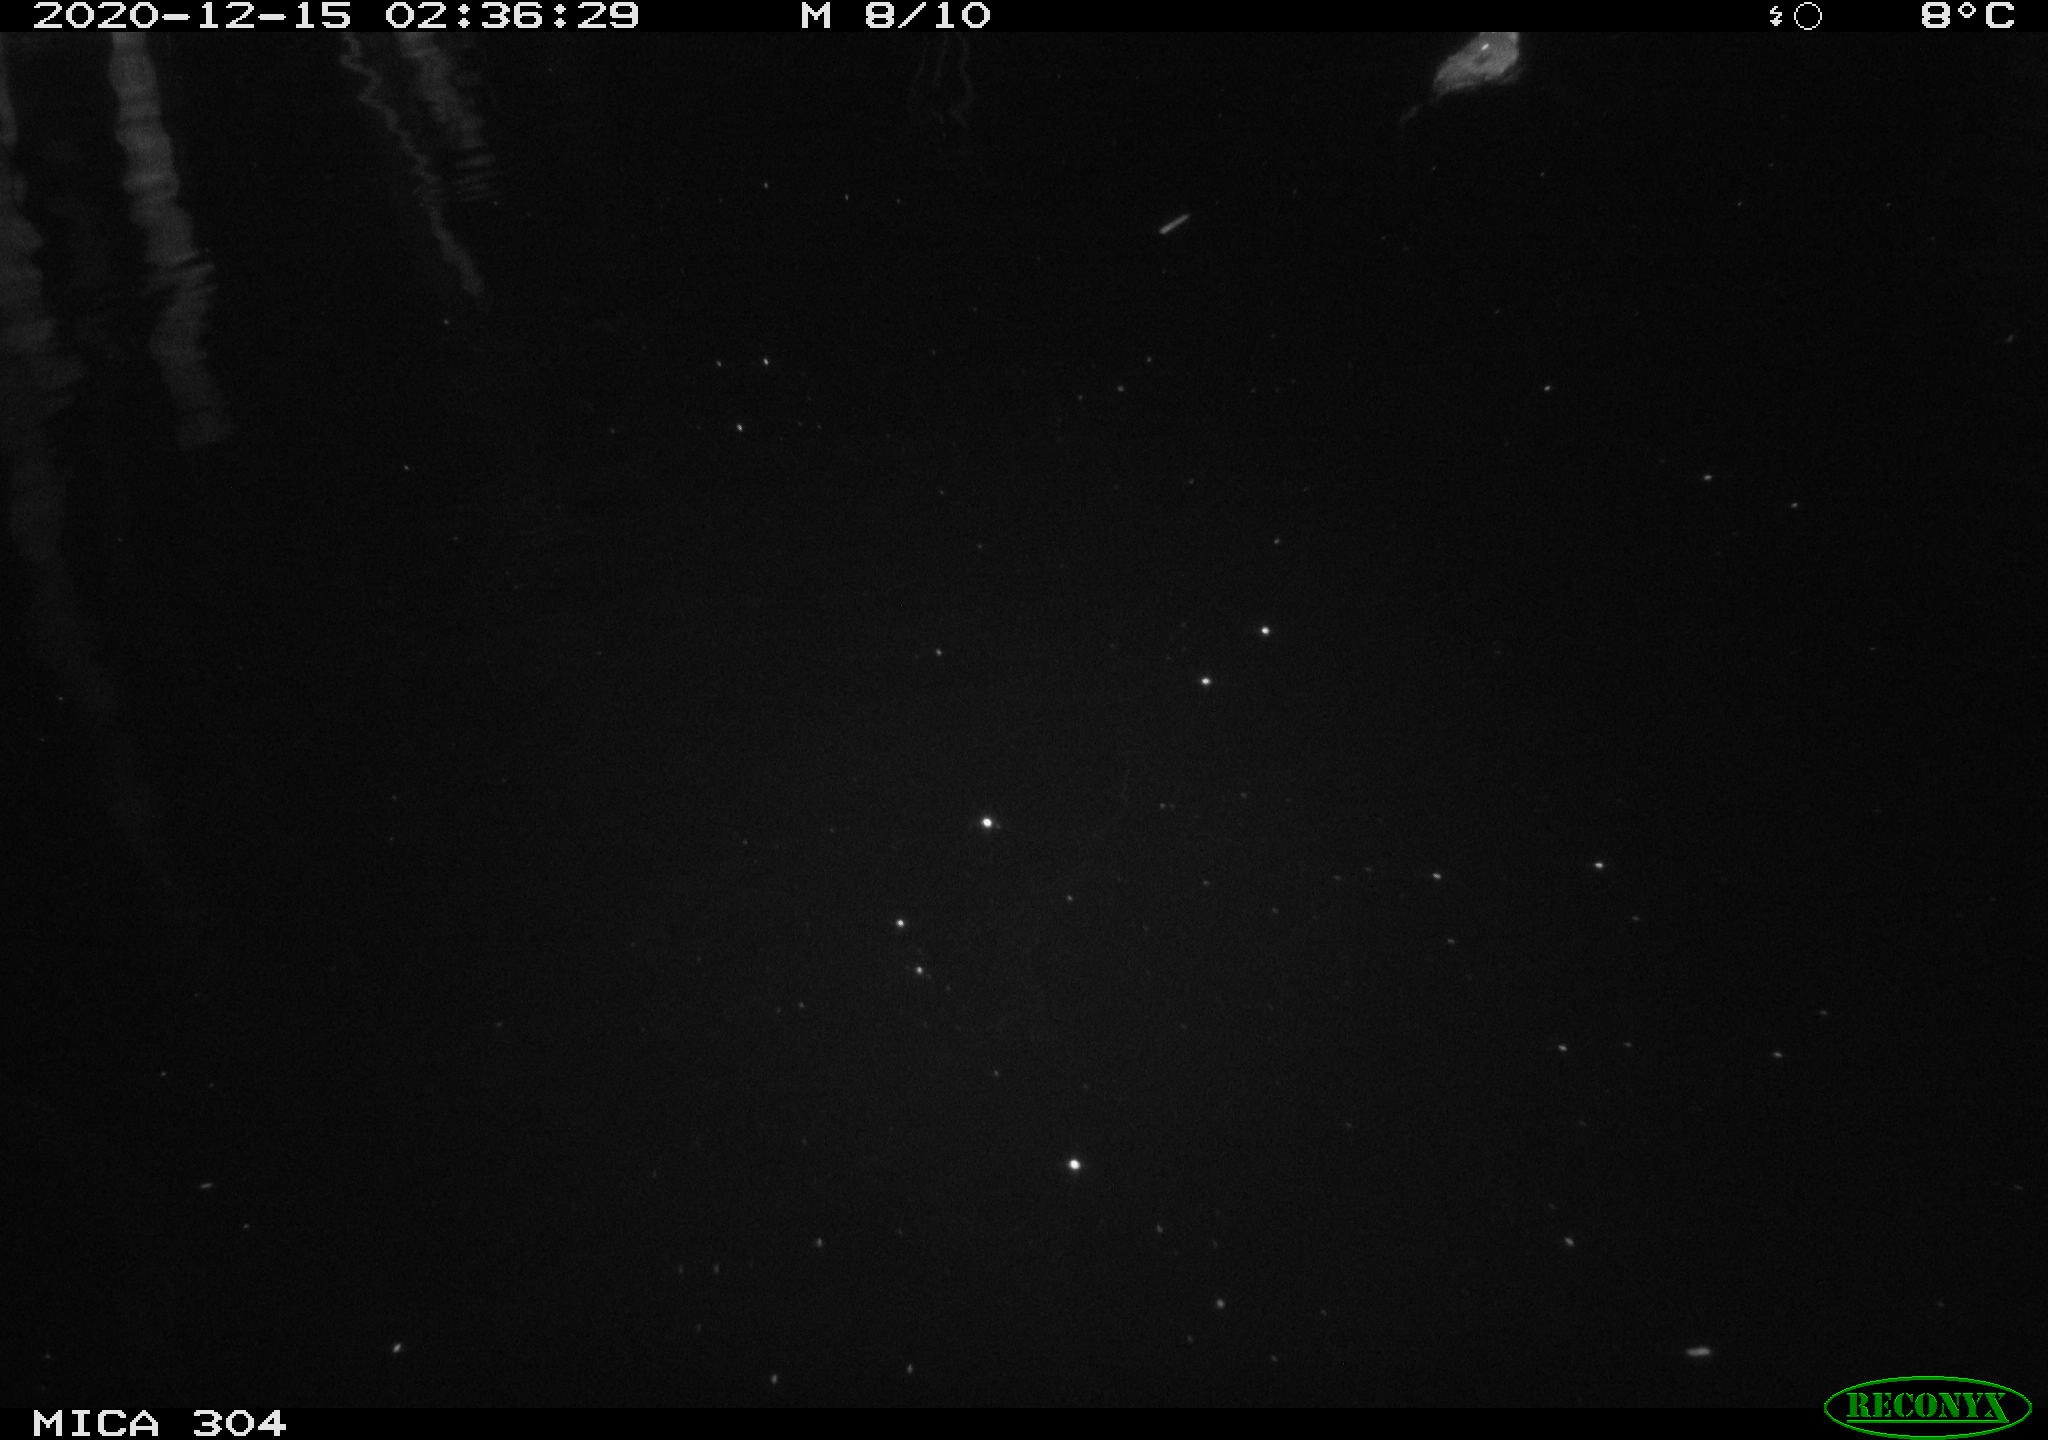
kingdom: Animalia
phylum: Chordata
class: Mammalia
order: Rodentia
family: Muridae
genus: Rattus
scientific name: Rattus norvegicus
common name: Brown rat
